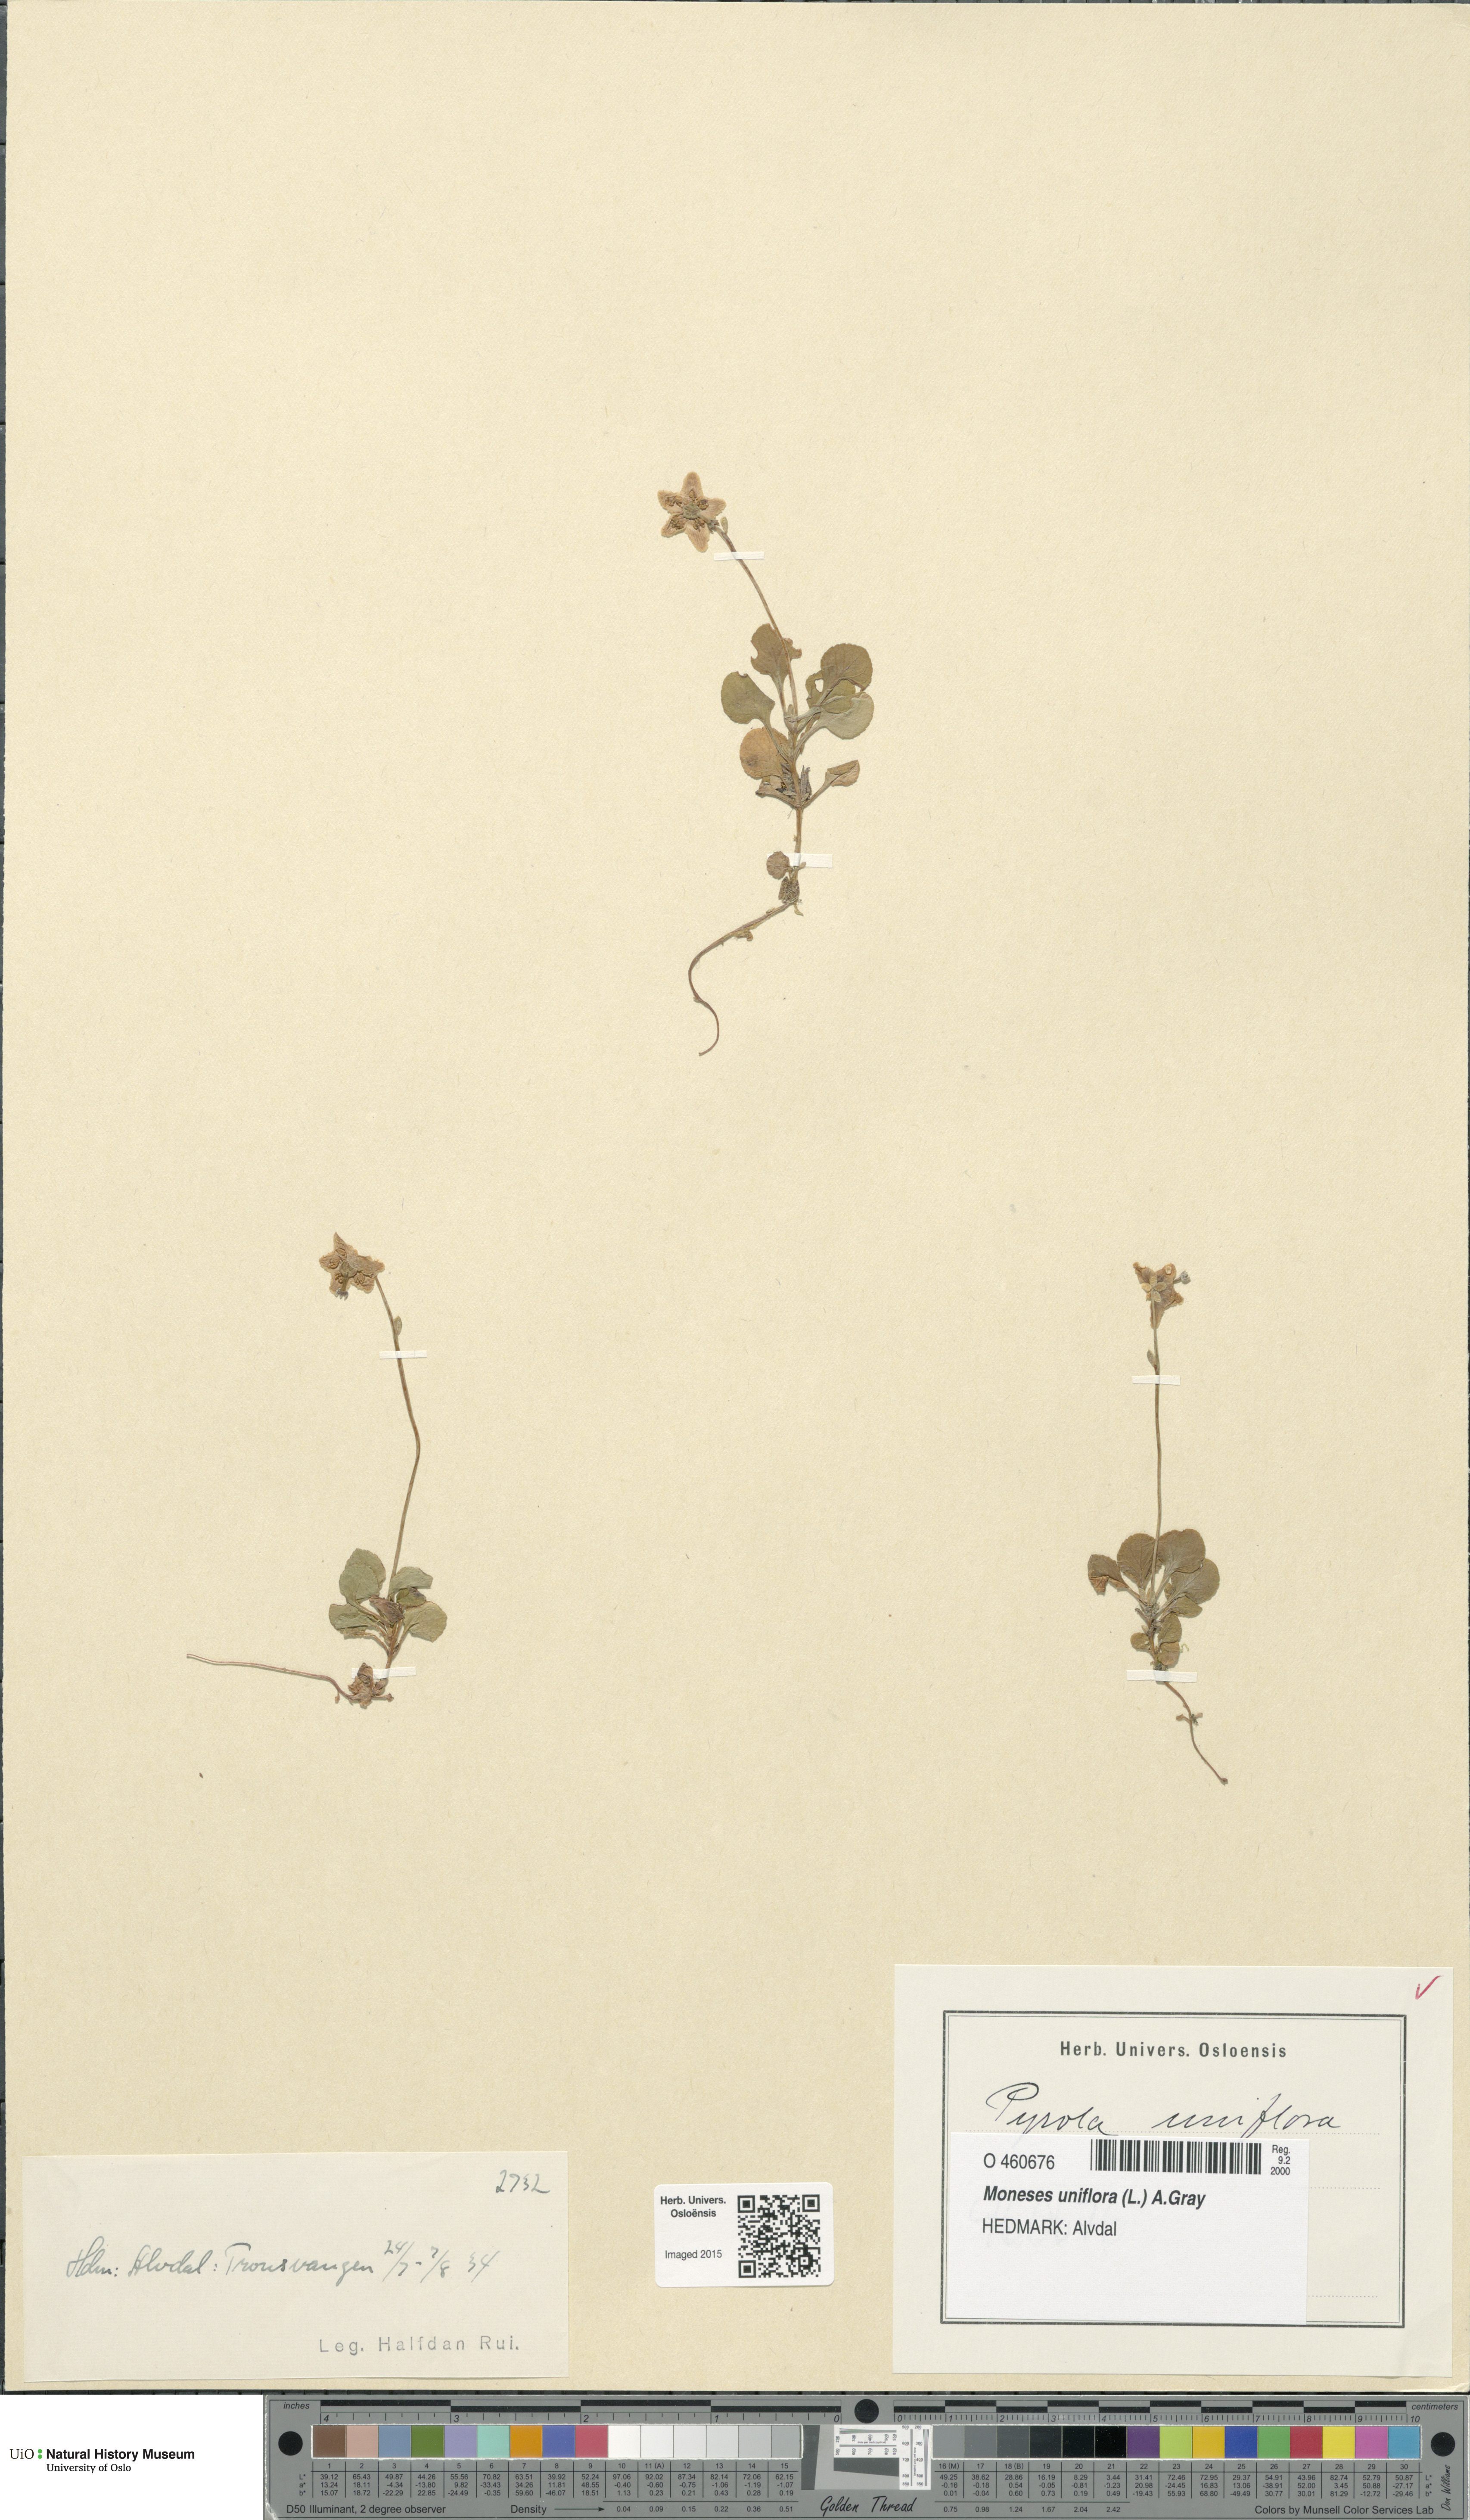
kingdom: Plantae
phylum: Tracheophyta
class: Magnoliopsida
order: Ericales
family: Ericaceae
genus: Moneses
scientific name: Moneses uniflora
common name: One-flowered wintergreen
